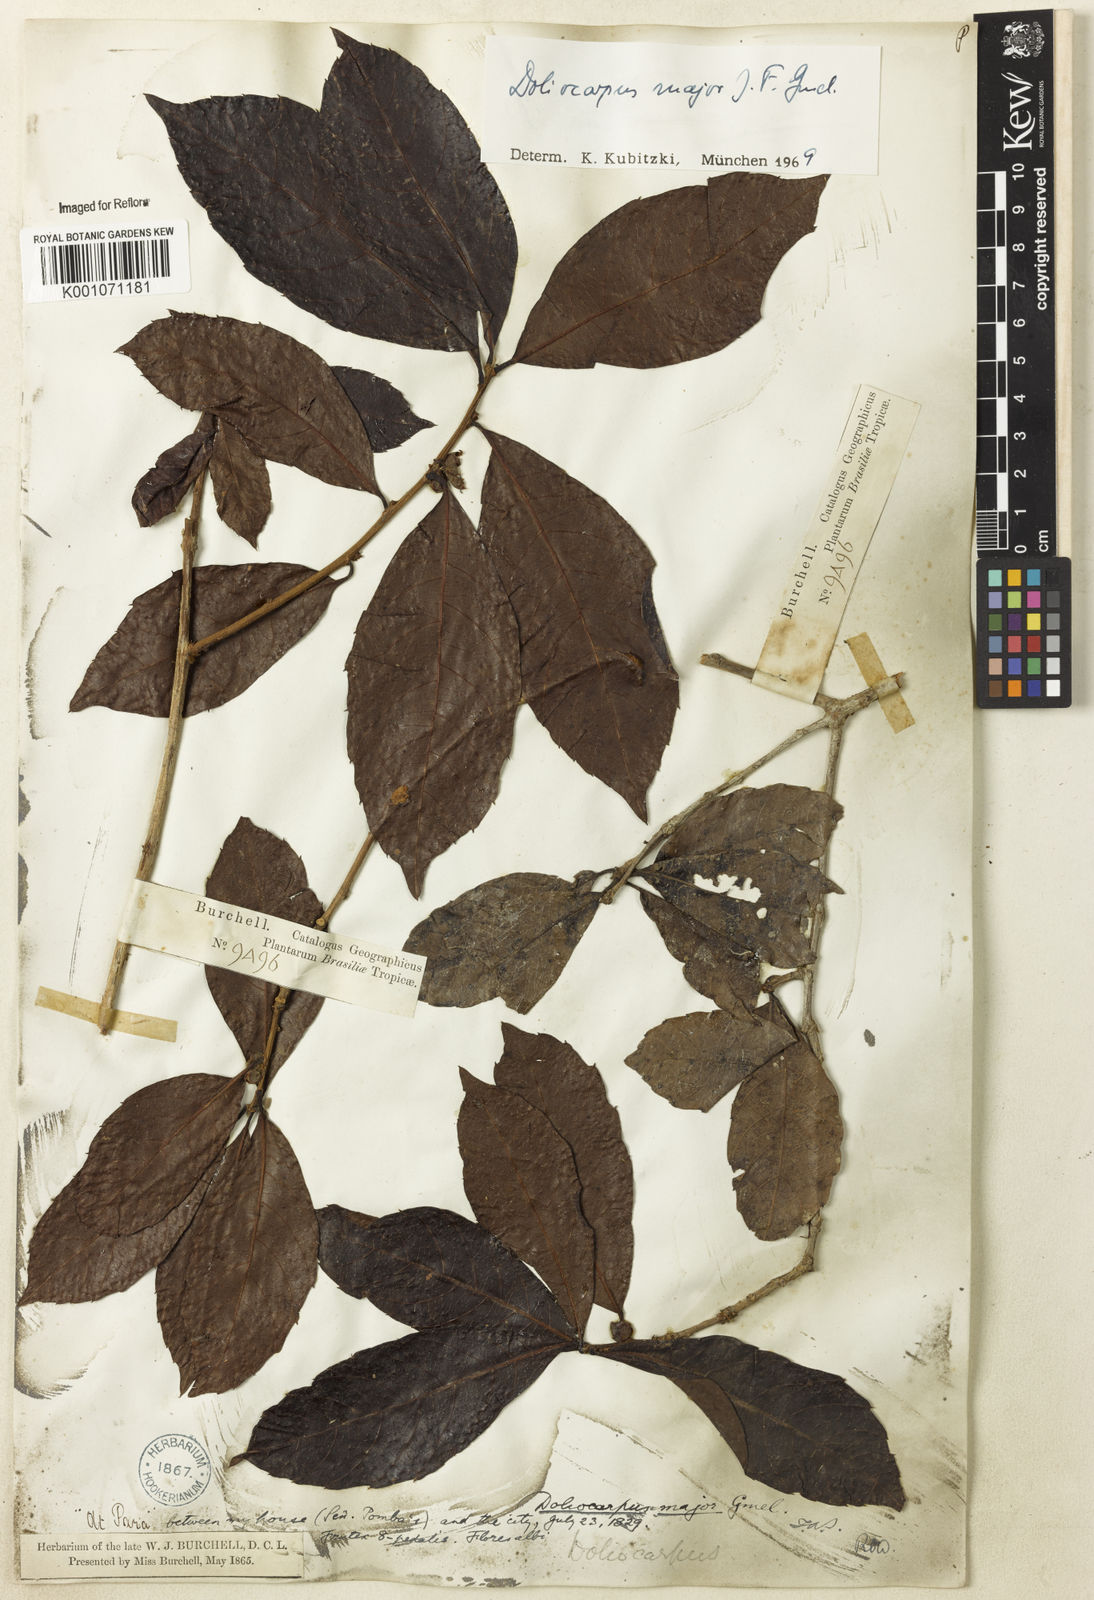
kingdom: Plantae
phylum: Tracheophyta
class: Magnoliopsida
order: Dilleniales
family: Dilleniaceae
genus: Doliocarpus
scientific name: Doliocarpus major
